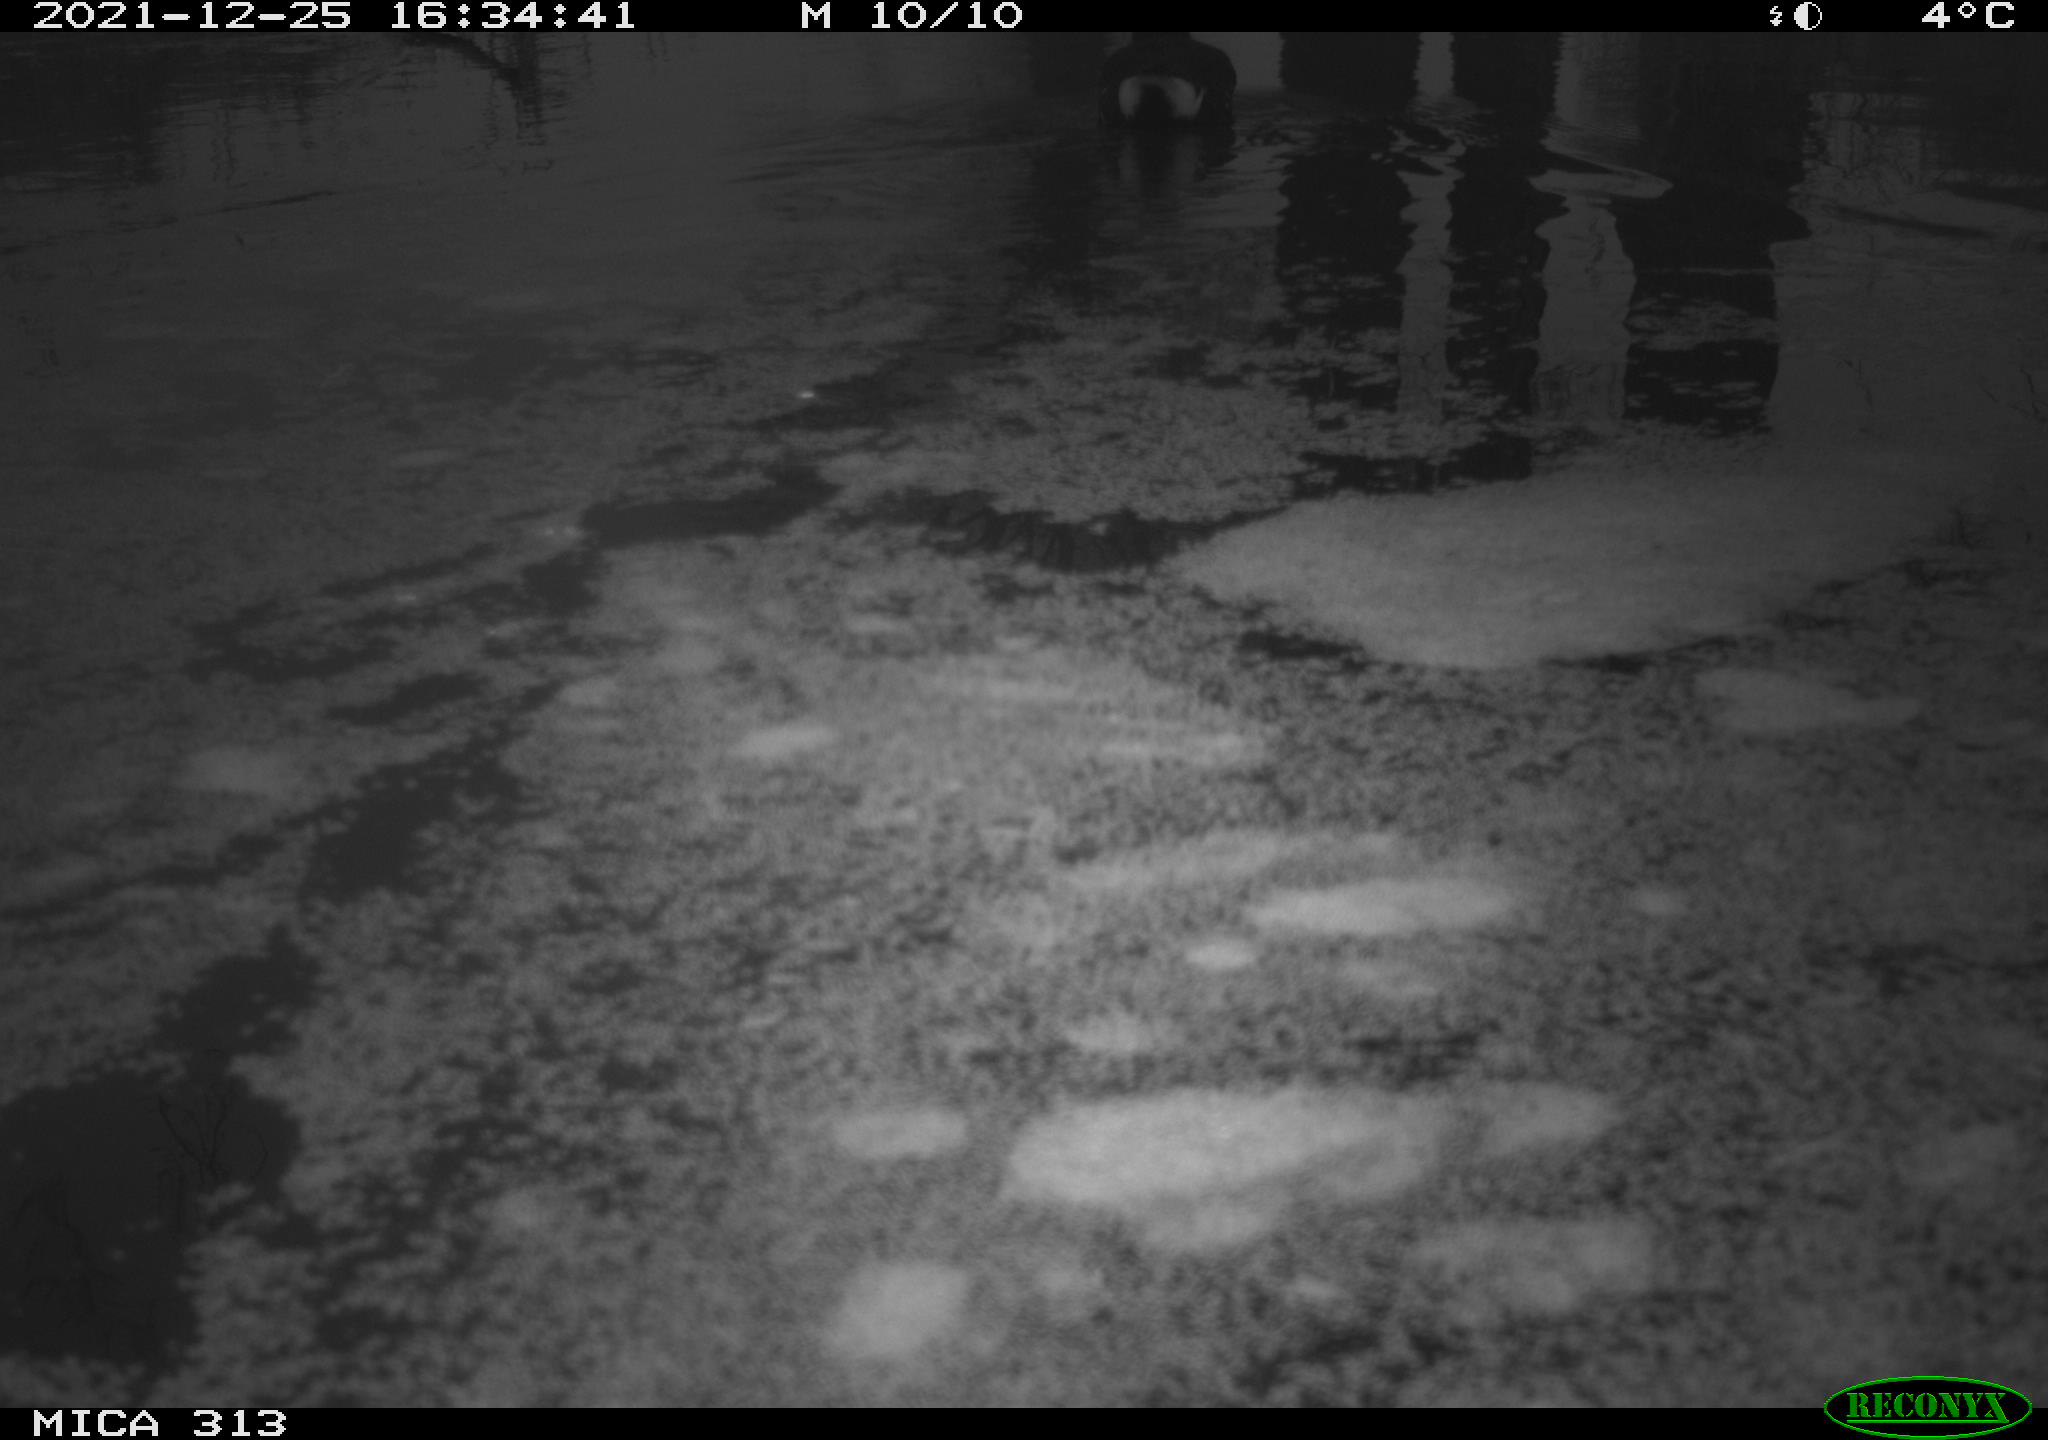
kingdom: Animalia
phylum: Chordata
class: Aves
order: Gruiformes
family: Rallidae
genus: Gallinula
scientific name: Gallinula chloropus
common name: Common moorhen
